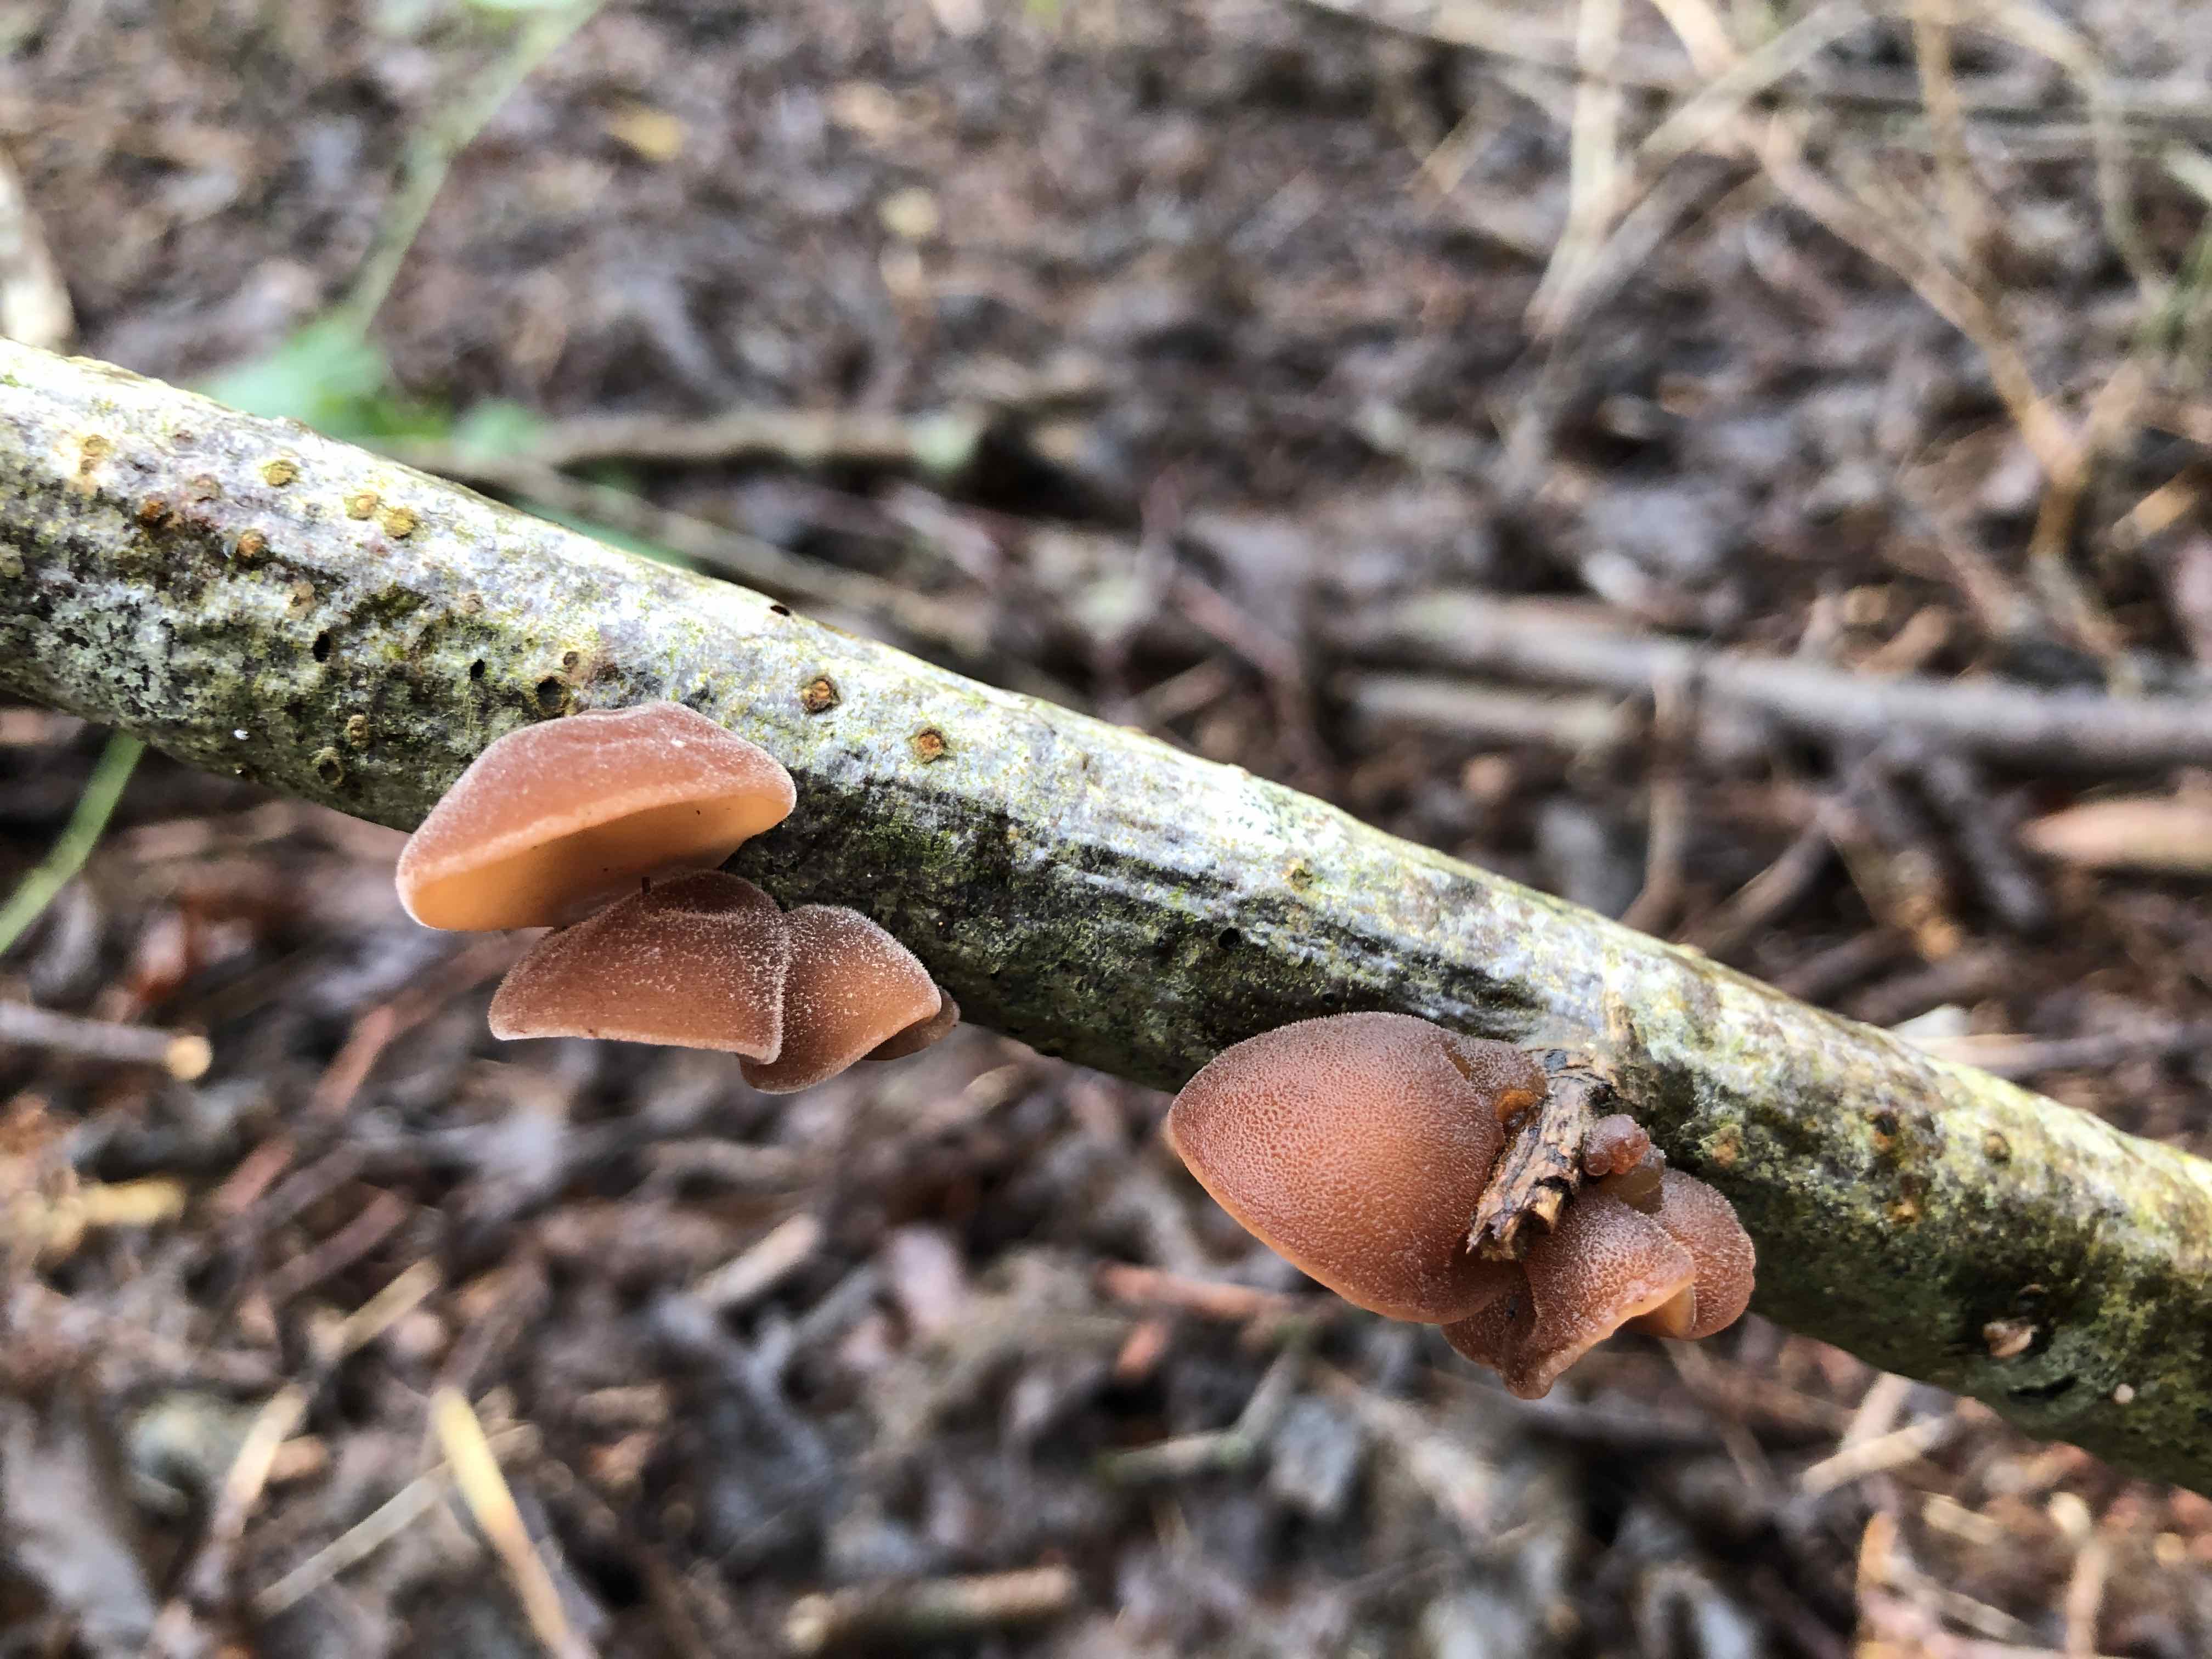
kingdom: Fungi
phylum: Basidiomycota
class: Agaricomycetes
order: Auriculariales
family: Auriculariaceae
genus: Auricularia
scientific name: Auricularia auricula-judae
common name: almindelig judasøre
